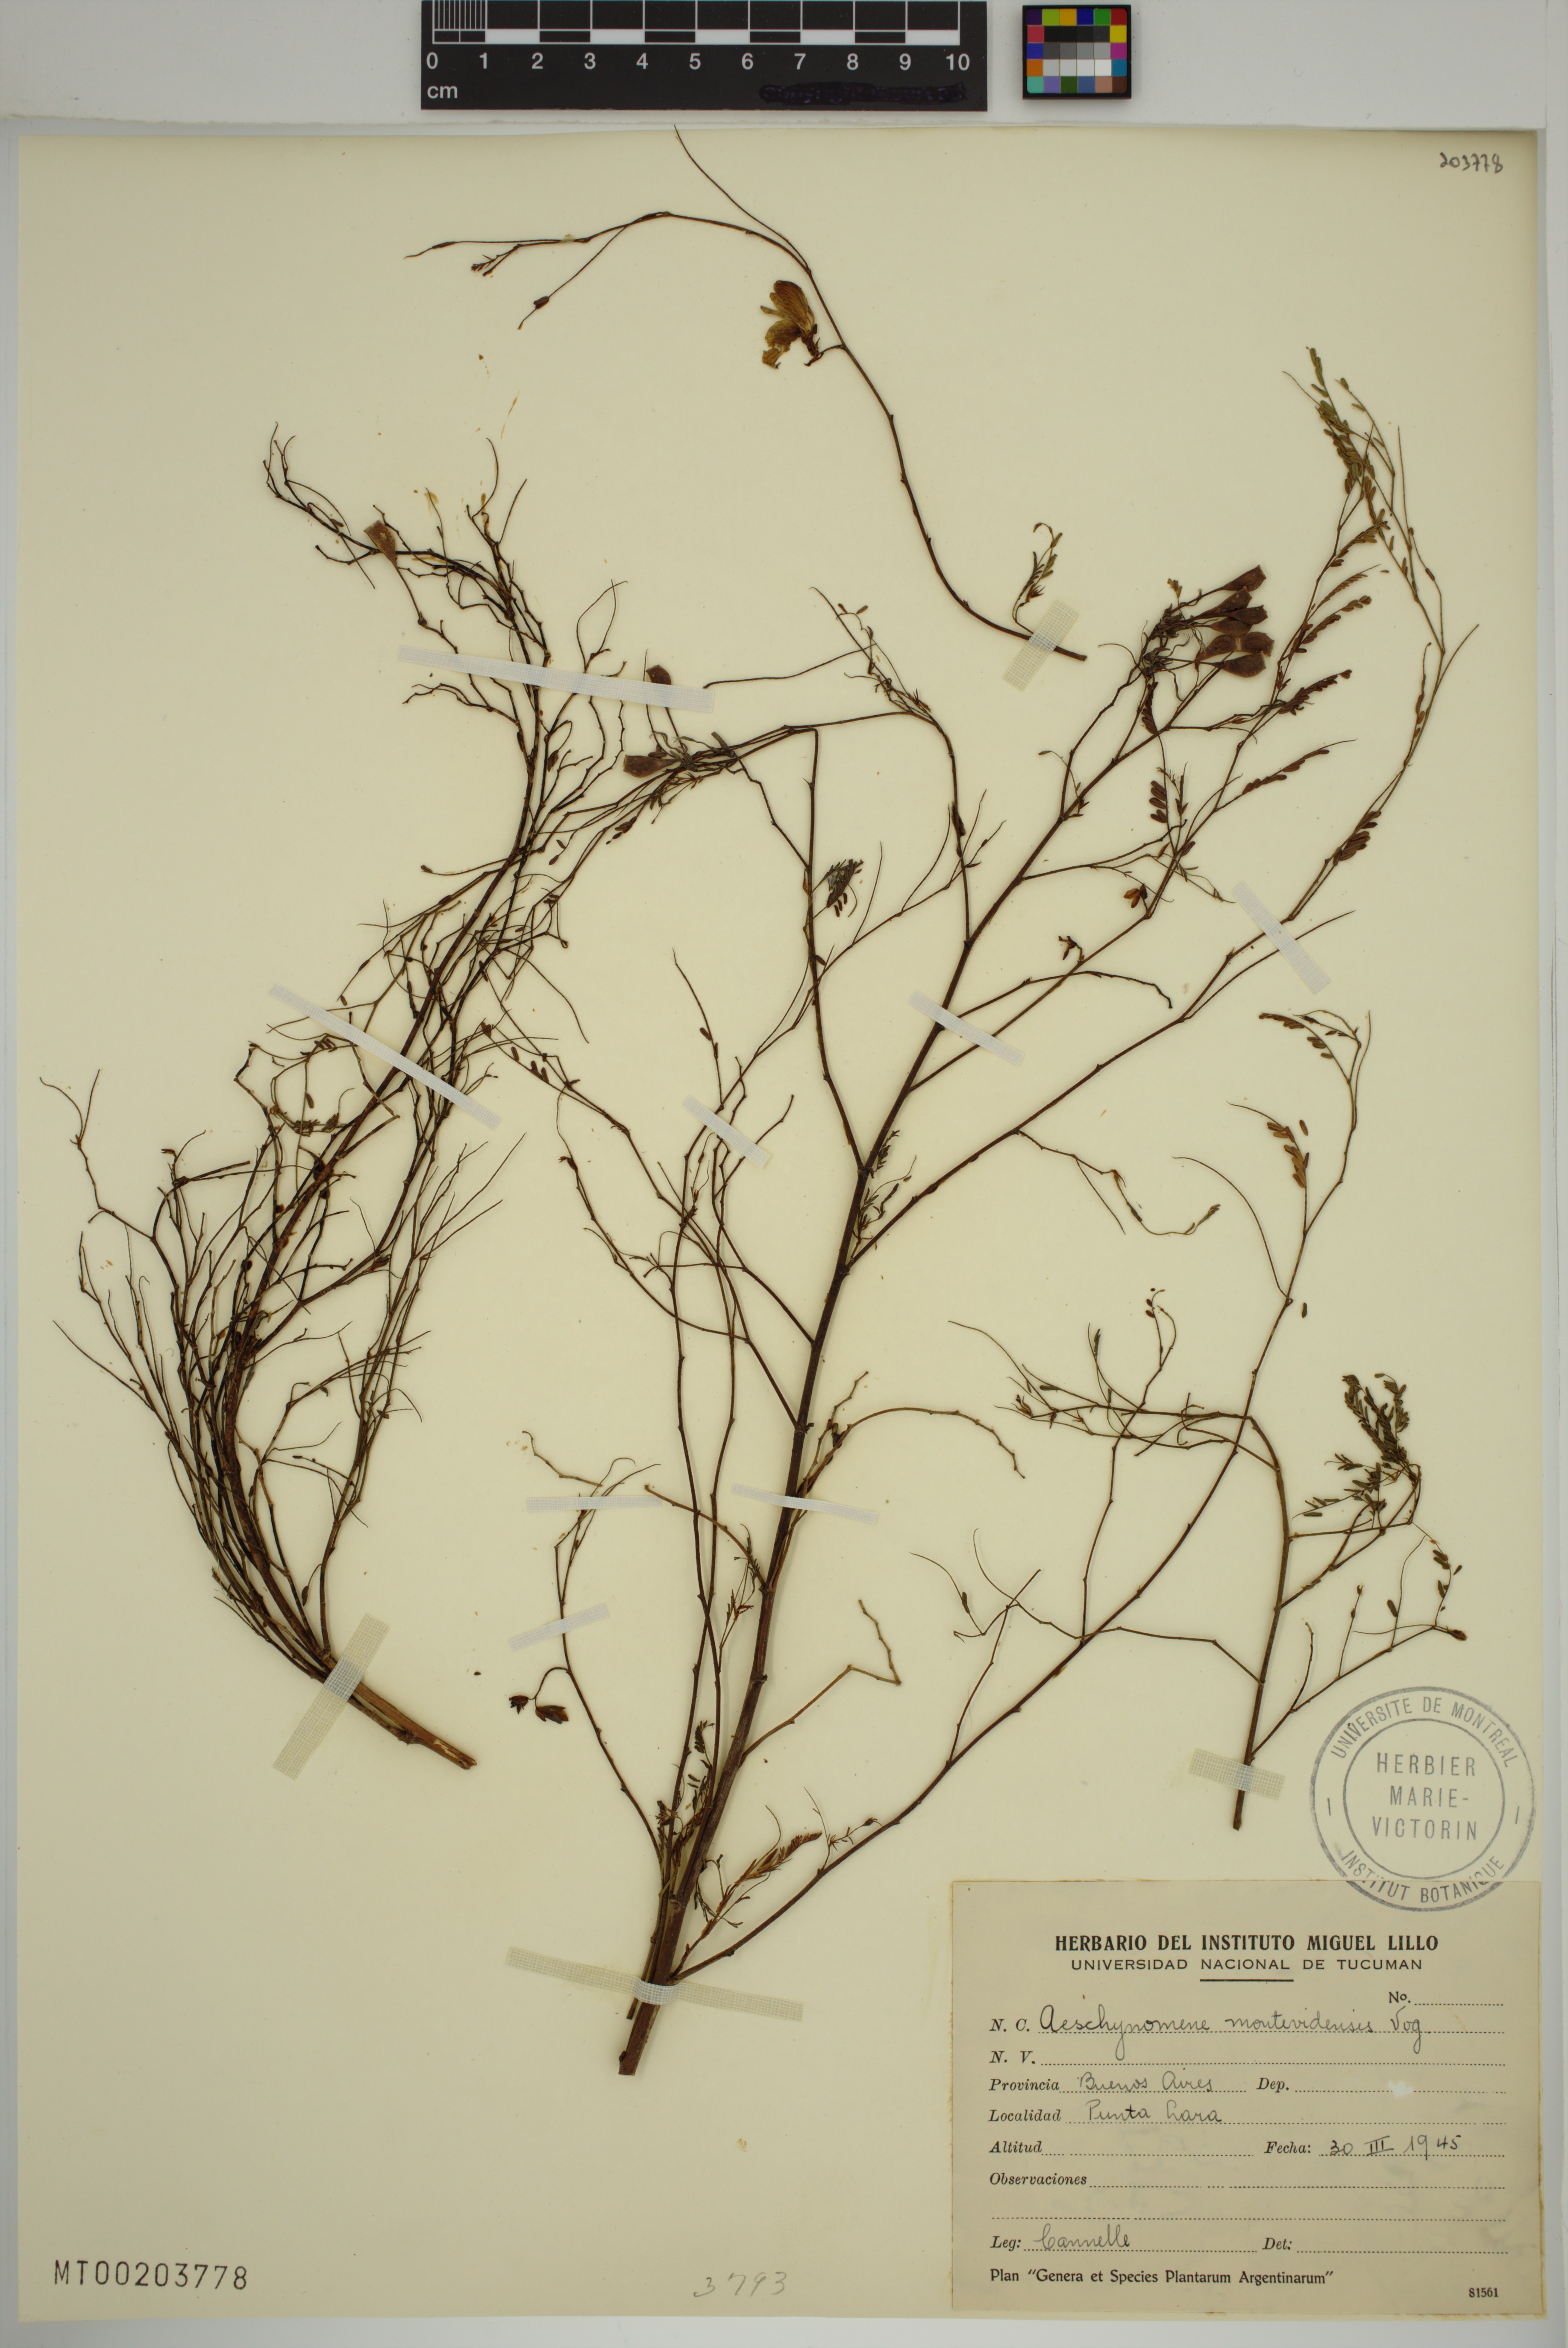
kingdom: Plantae
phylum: Tracheophyta
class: Magnoliopsida
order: Fabales
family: Fabaceae
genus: Aeschynomene
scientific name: Aeschynomene montevidensis
